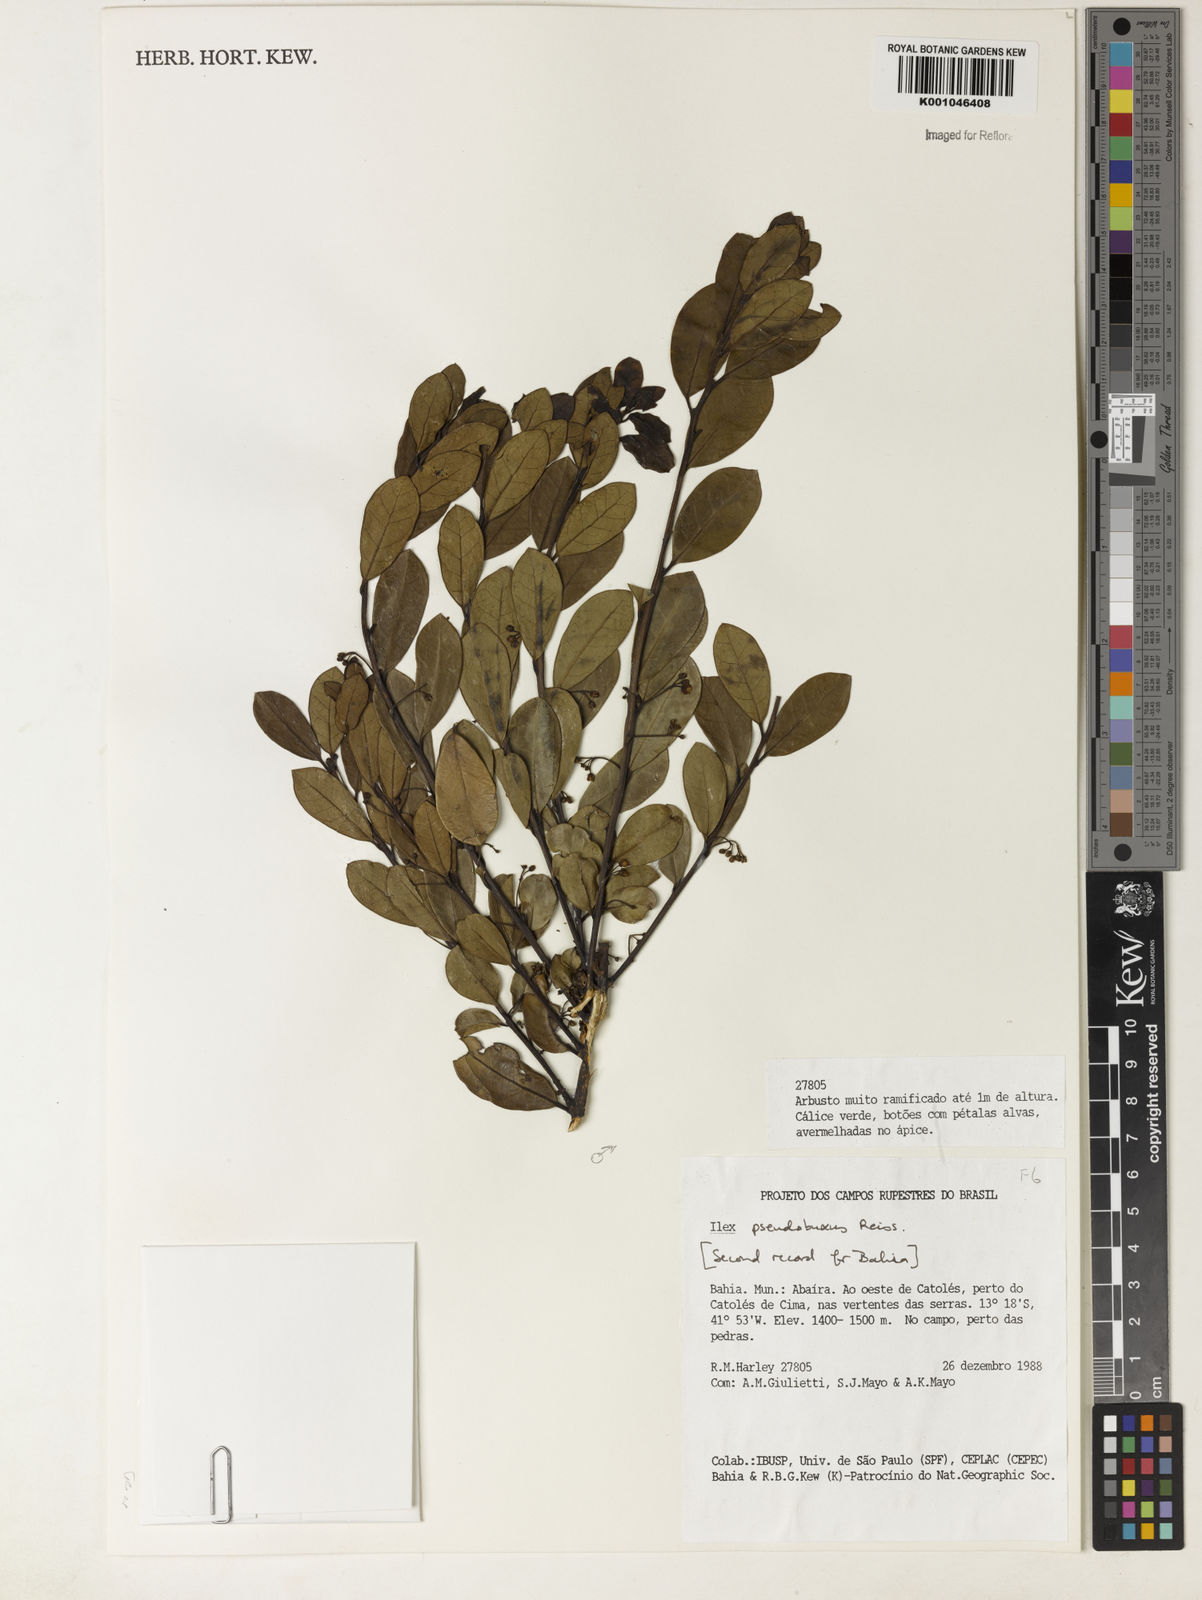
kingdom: Plantae
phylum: Tracheophyta
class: Magnoliopsida
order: Aquifoliales
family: Aquifoliaceae
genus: Ilex
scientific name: Ilex pseudobuxus
